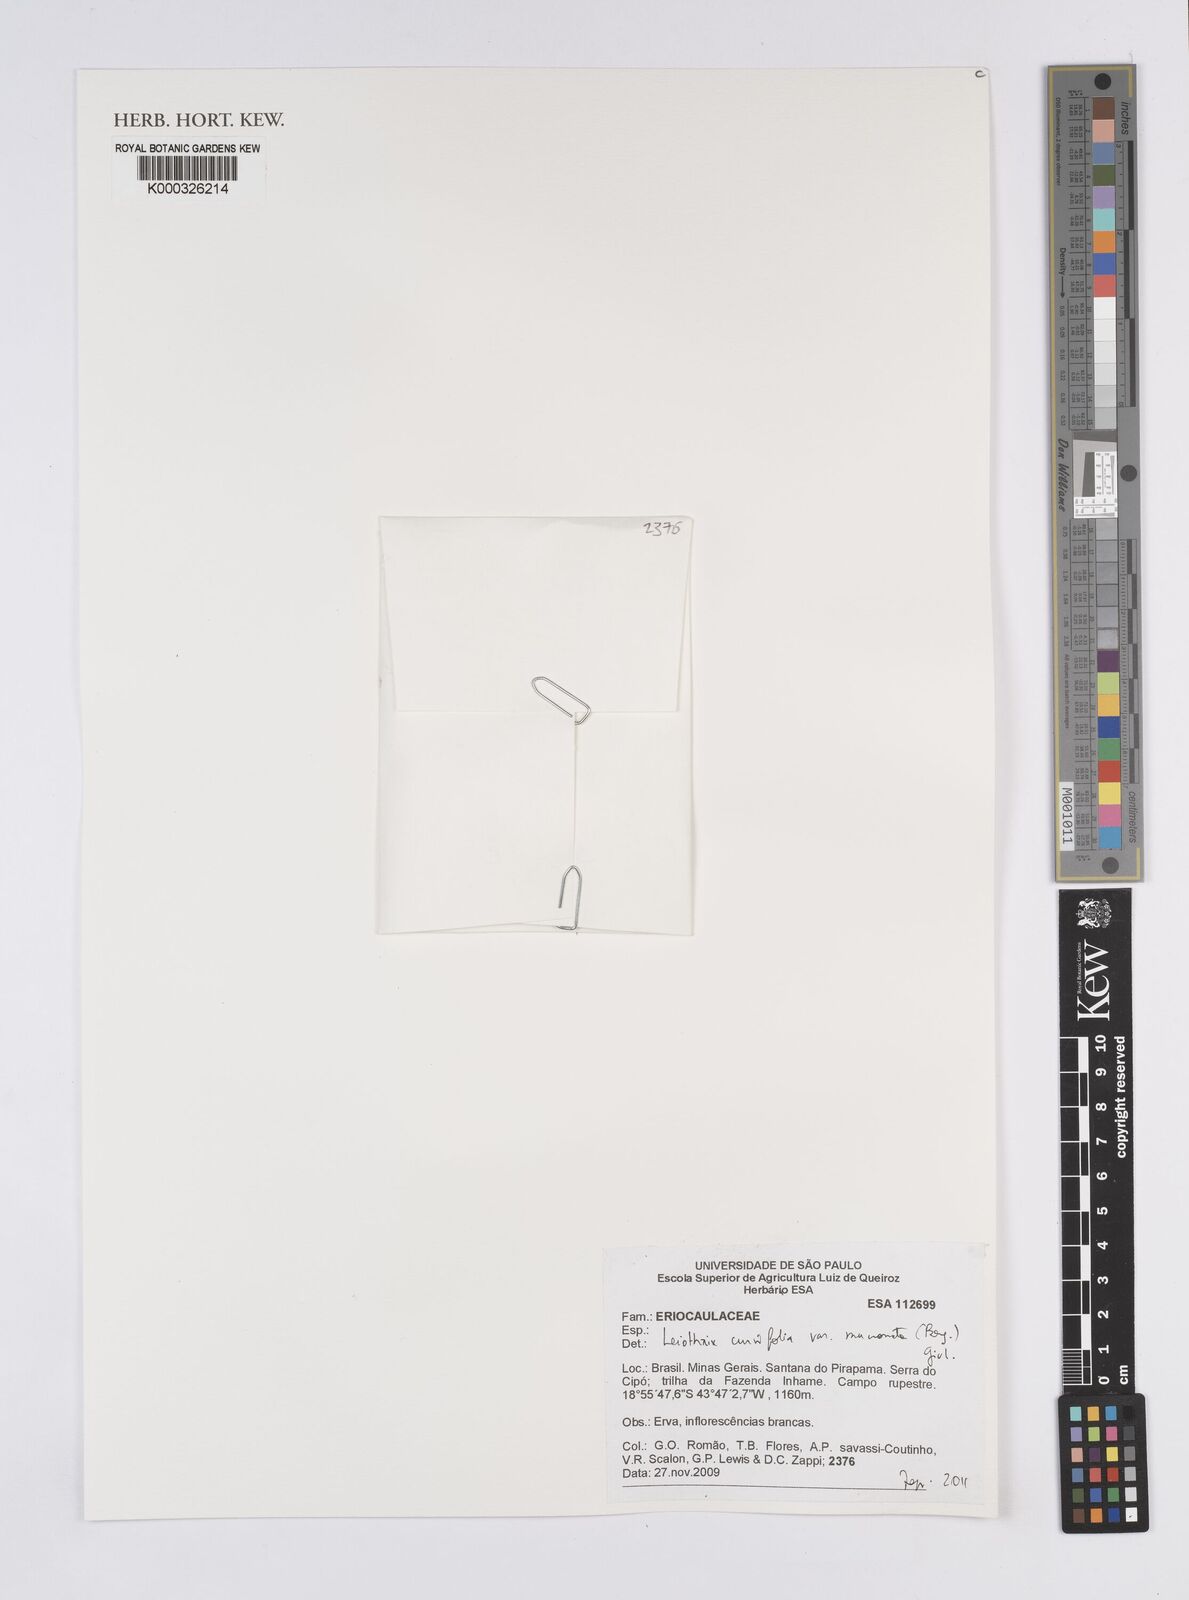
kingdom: Plantae
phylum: Tracheophyta
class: Liliopsida
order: Poales
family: Eriocaulaceae
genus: Leiothrix
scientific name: Leiothrix curvifolia
